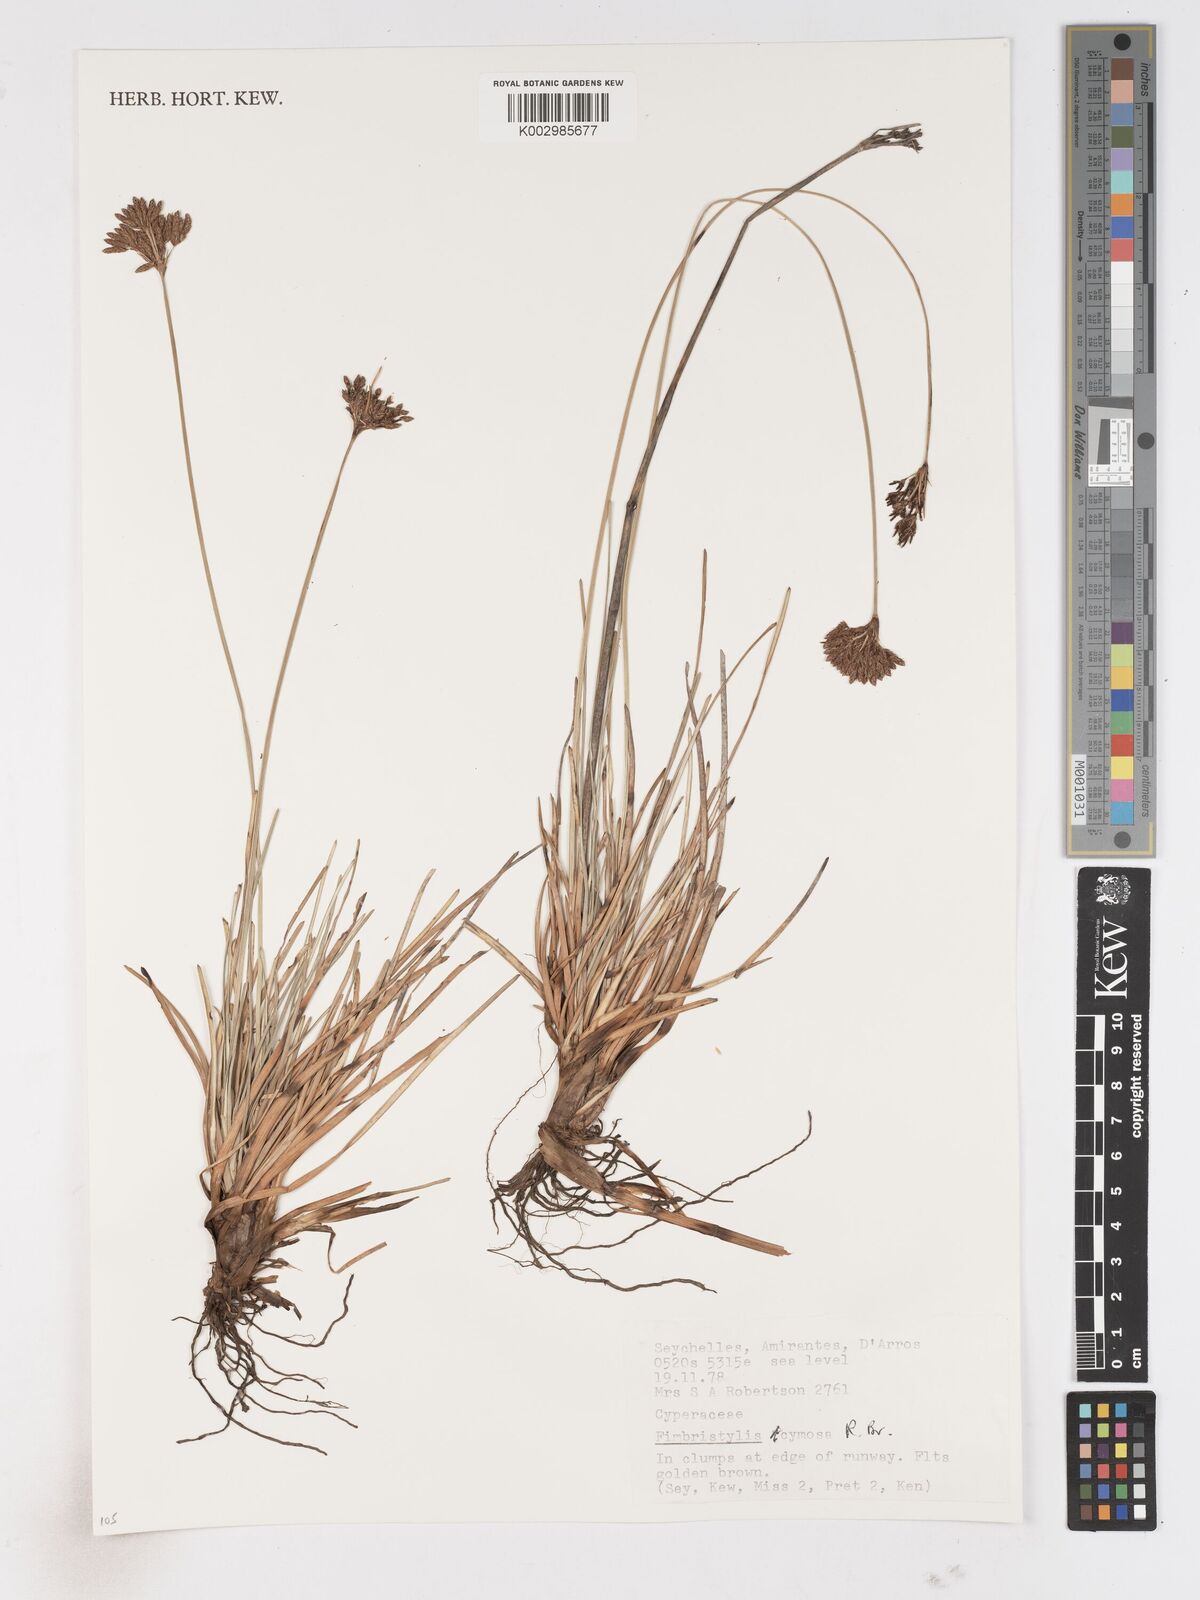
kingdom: Plantae
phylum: Tracheophyta
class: Liliopsida
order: Poales
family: Cyperaceae
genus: Fimbristylis
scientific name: Fimbristylis cymosa
